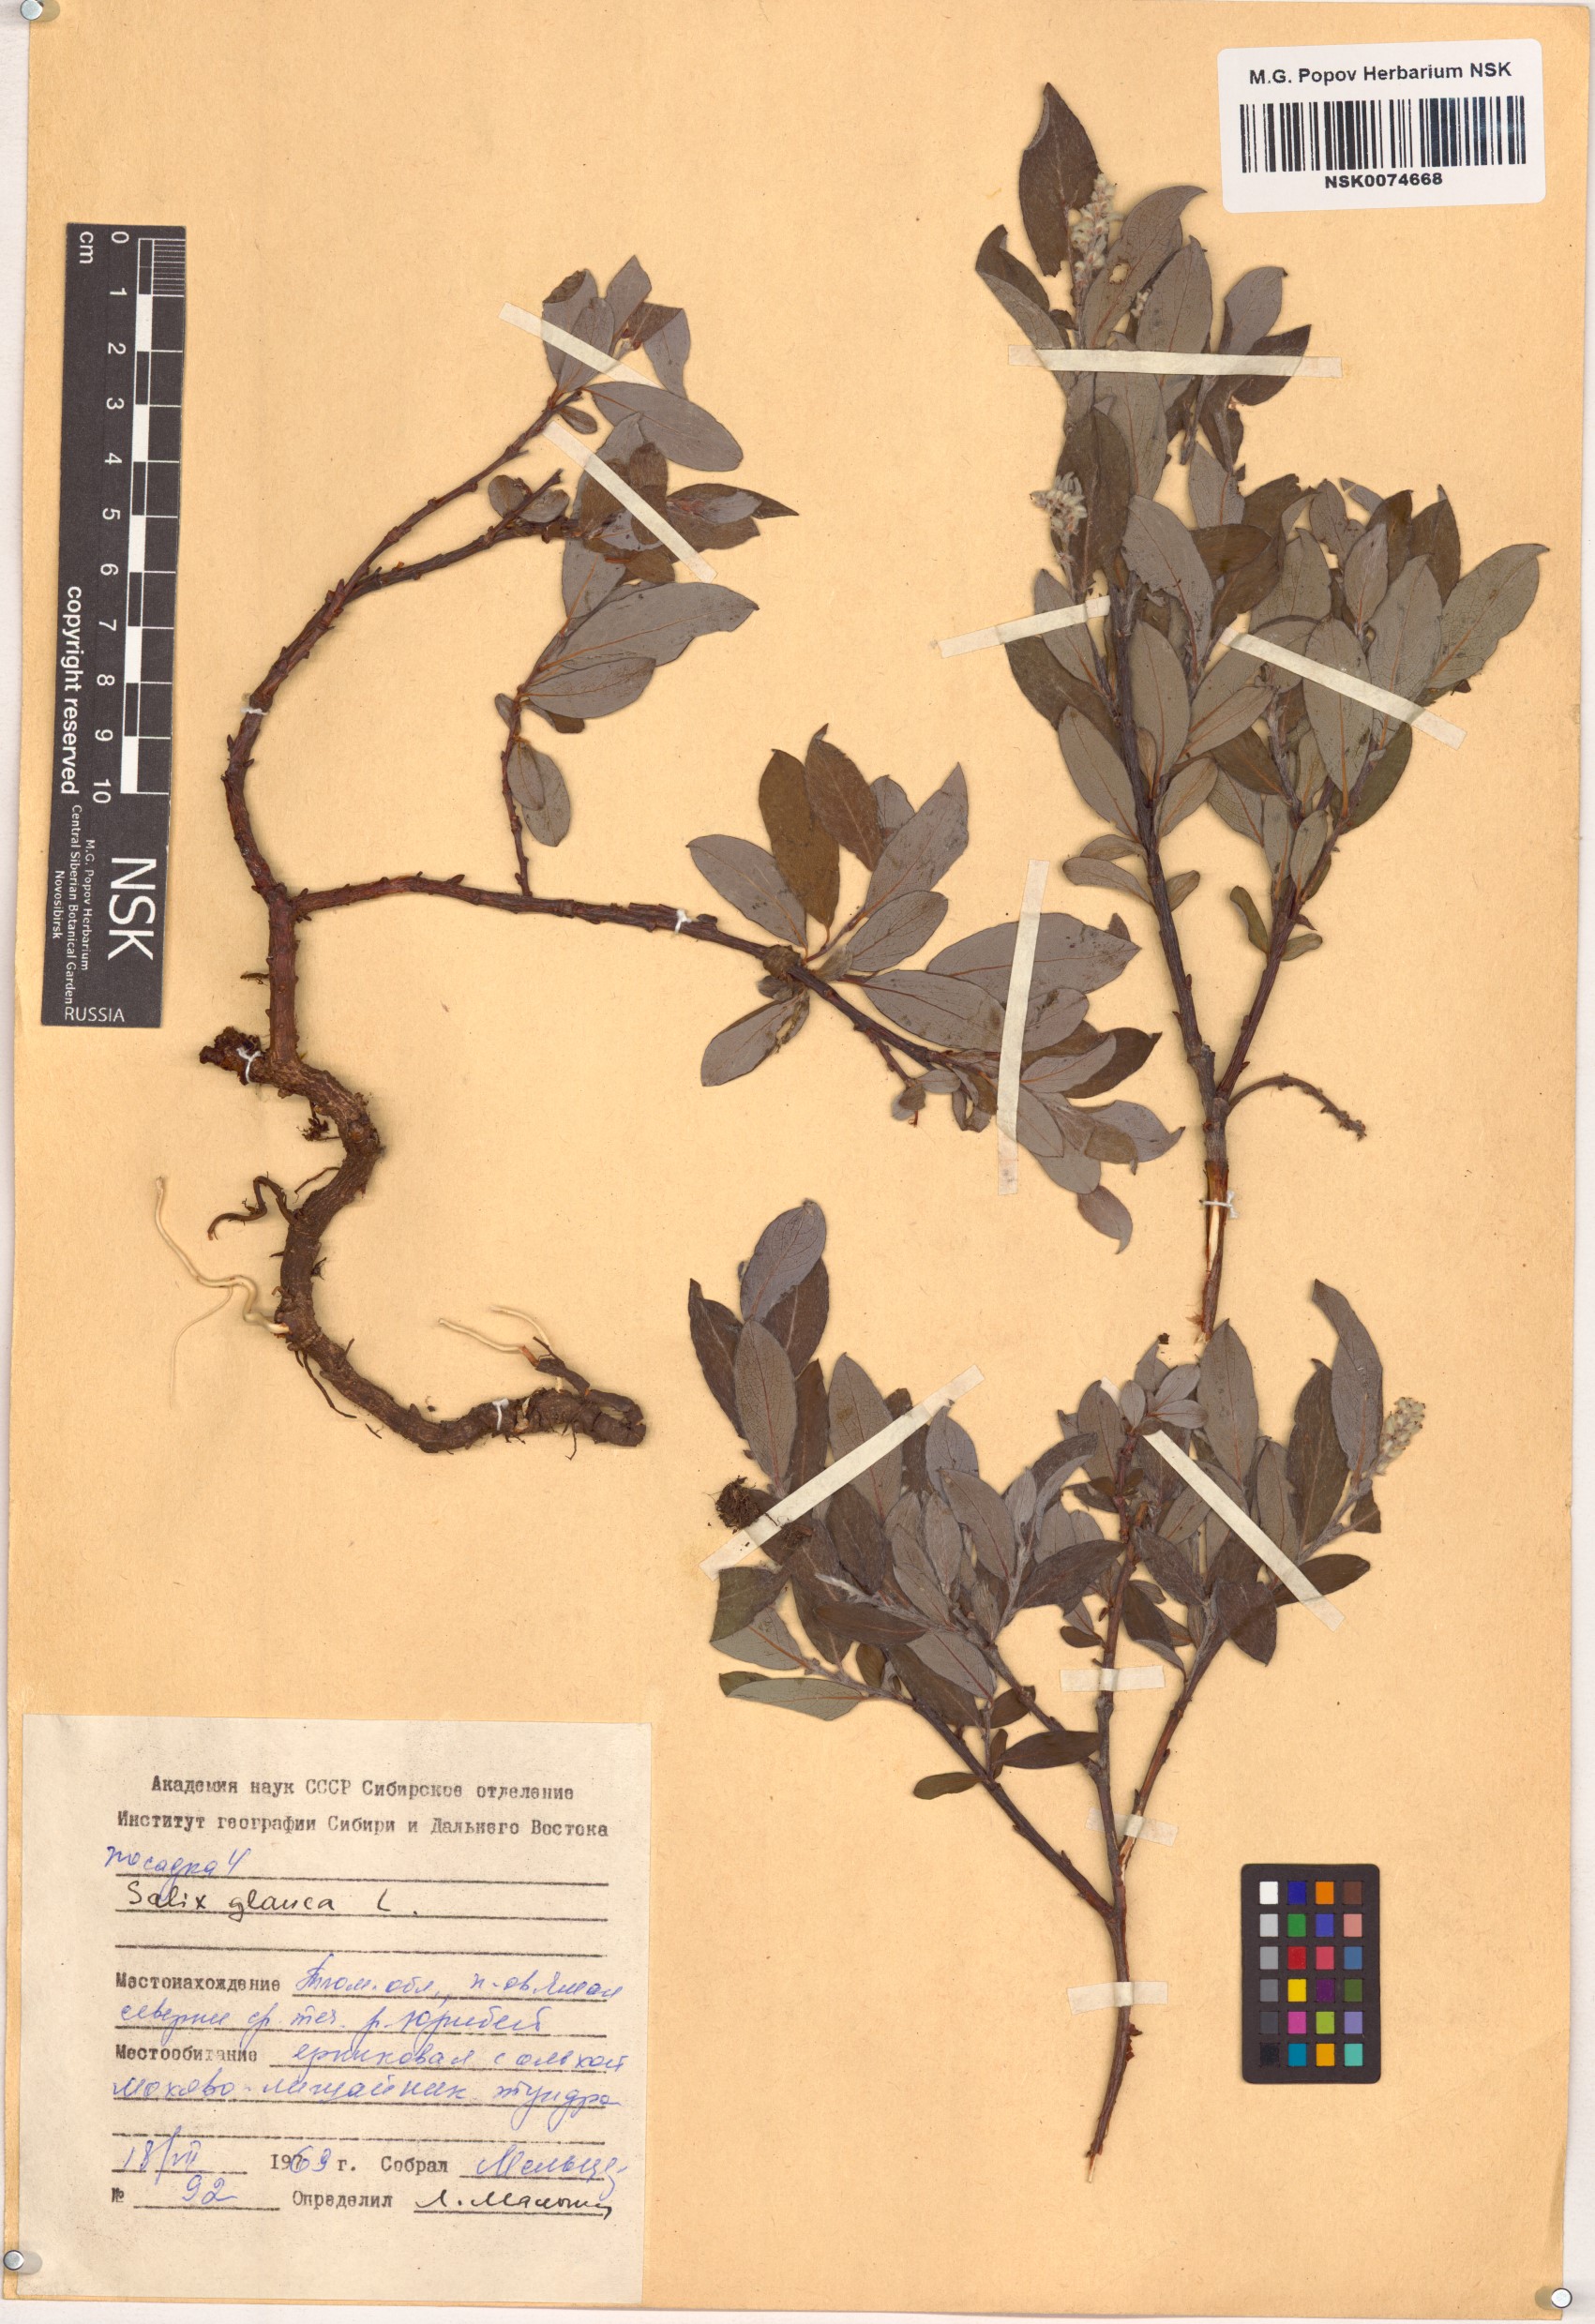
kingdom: Plantae
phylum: Tracheophyta
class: Magnoliopsida
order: Malpighiales
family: Salicaceae
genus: Salix
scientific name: Salix glauca
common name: Glaucous willow
